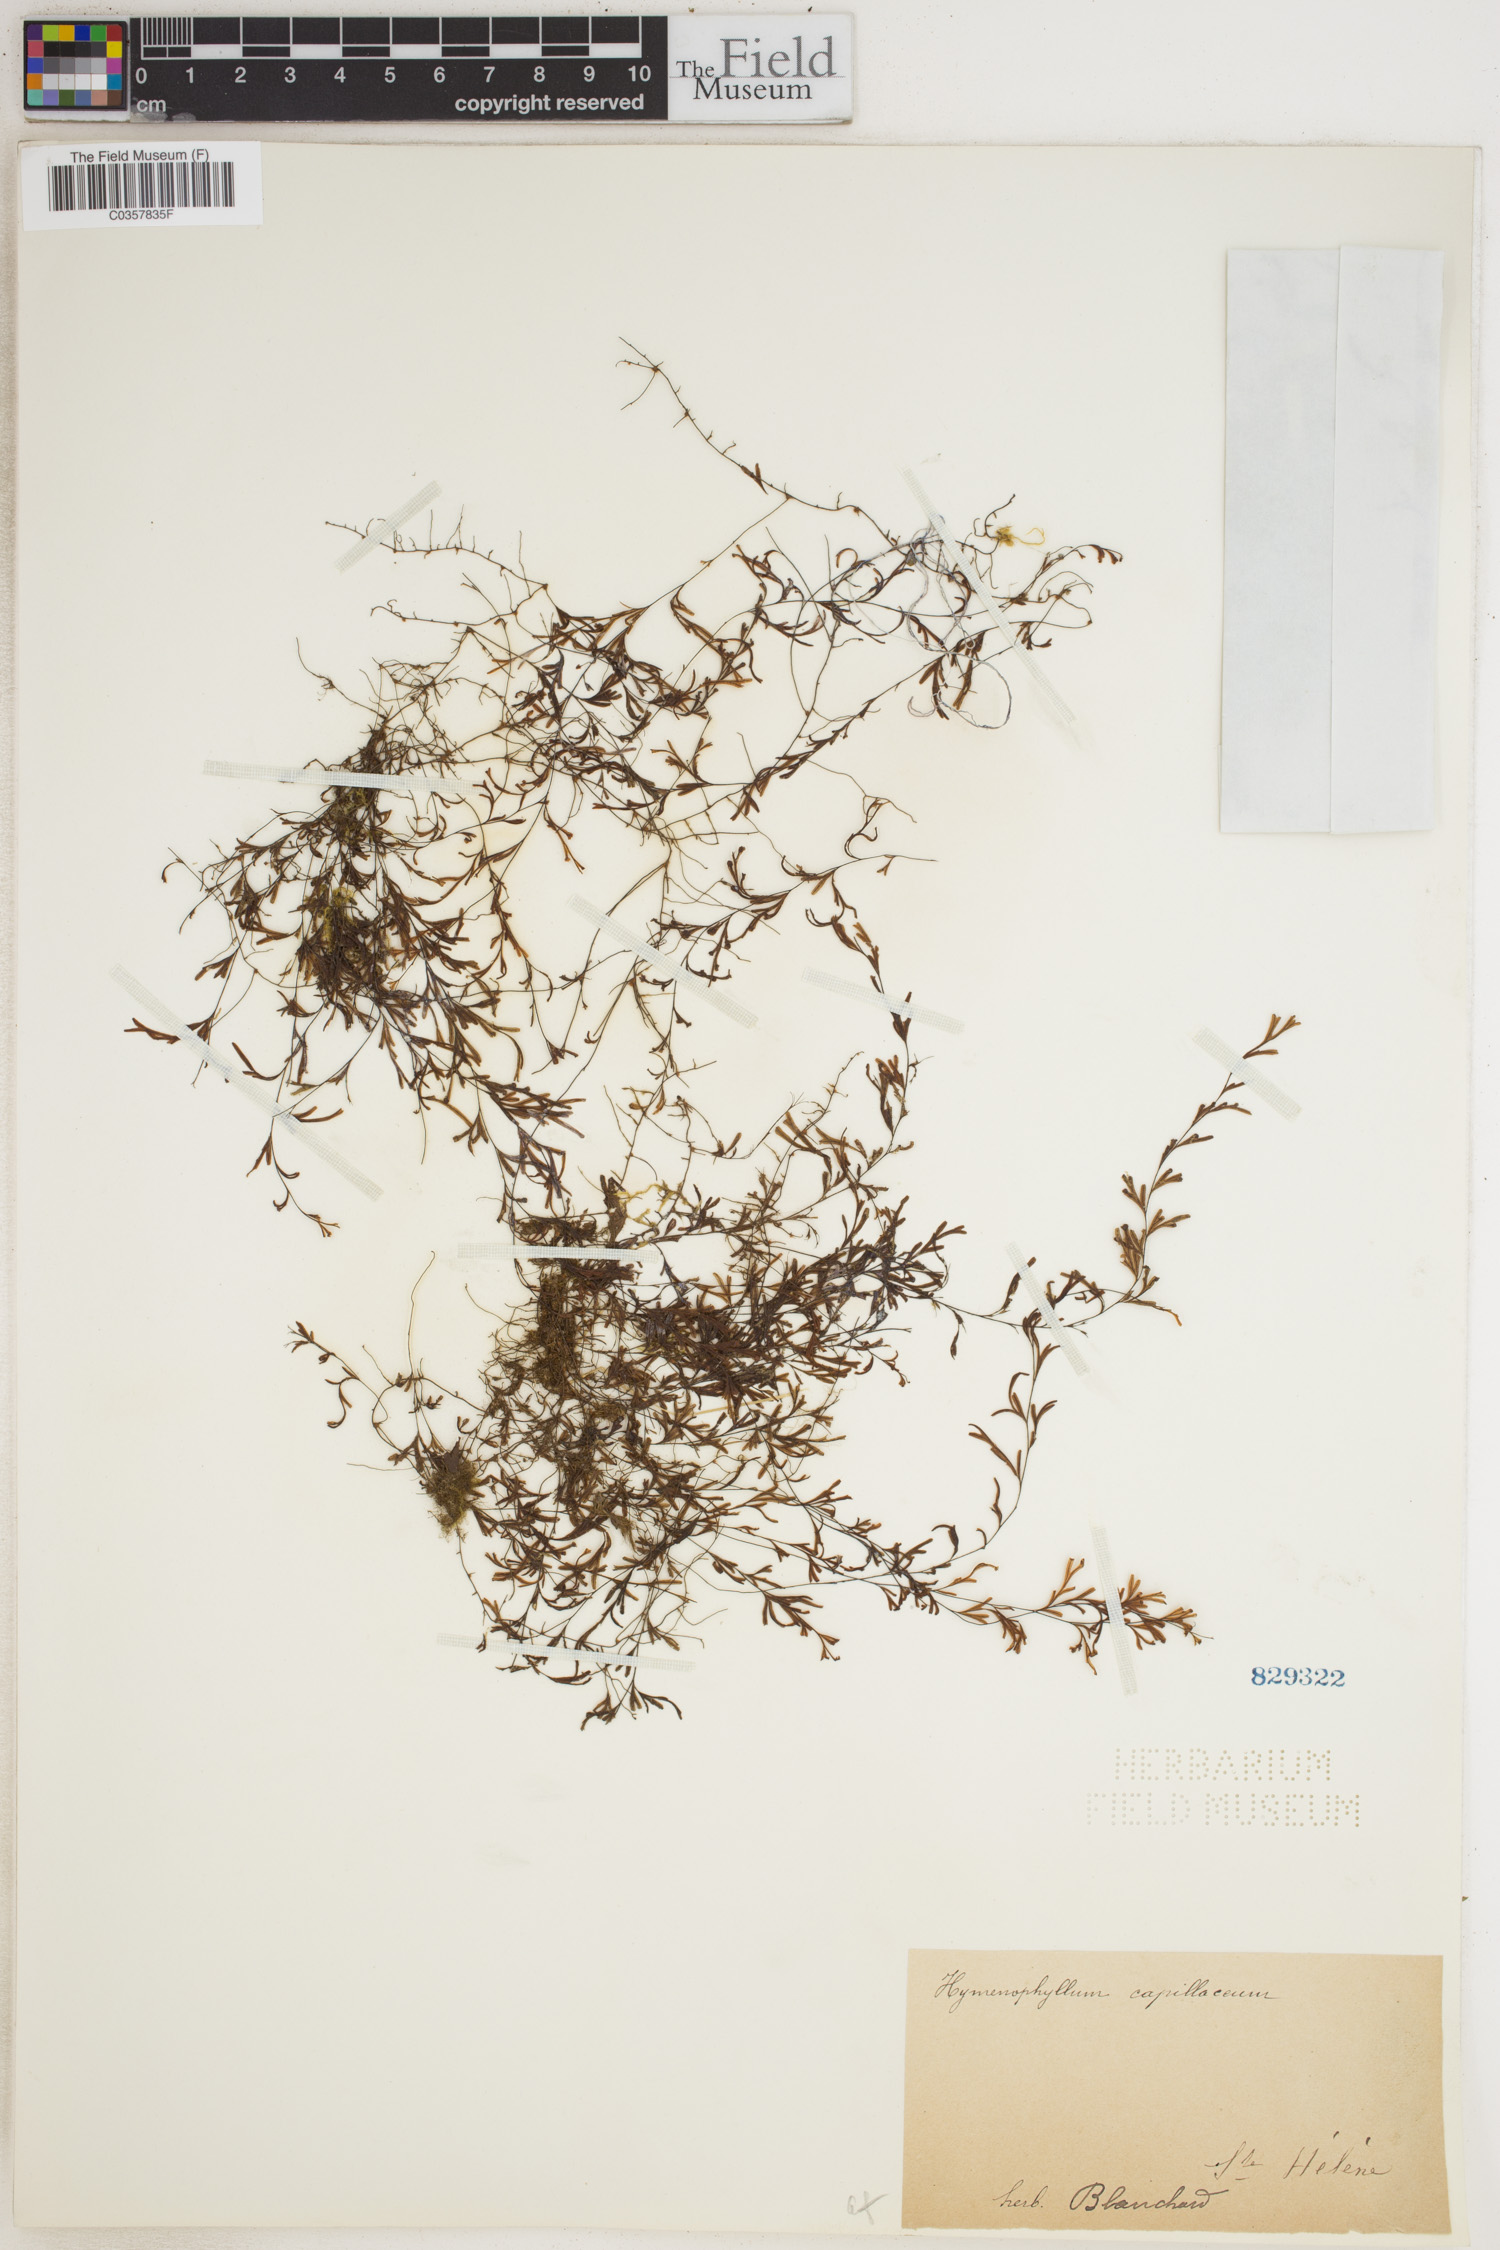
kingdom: Plantae
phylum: Tracheophyta
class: Polypodiopsida
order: Hymenophyllales
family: Hymenophyllaceae
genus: Hymenophyllum
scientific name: Hymenophyllum capillare
